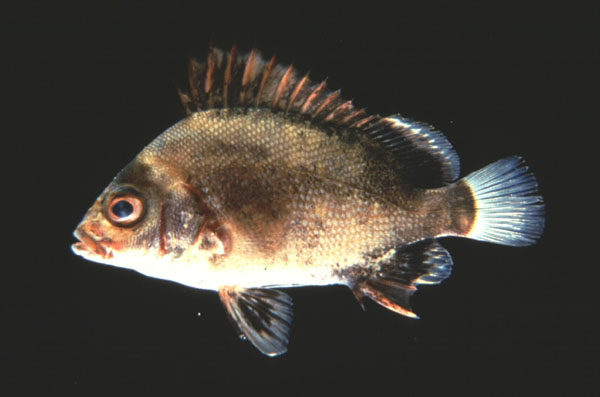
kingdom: Animalia
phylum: Chordata
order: Perciformes
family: Haemulidae
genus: Plectorhinchus
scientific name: Plectorhinchus gibbosus
